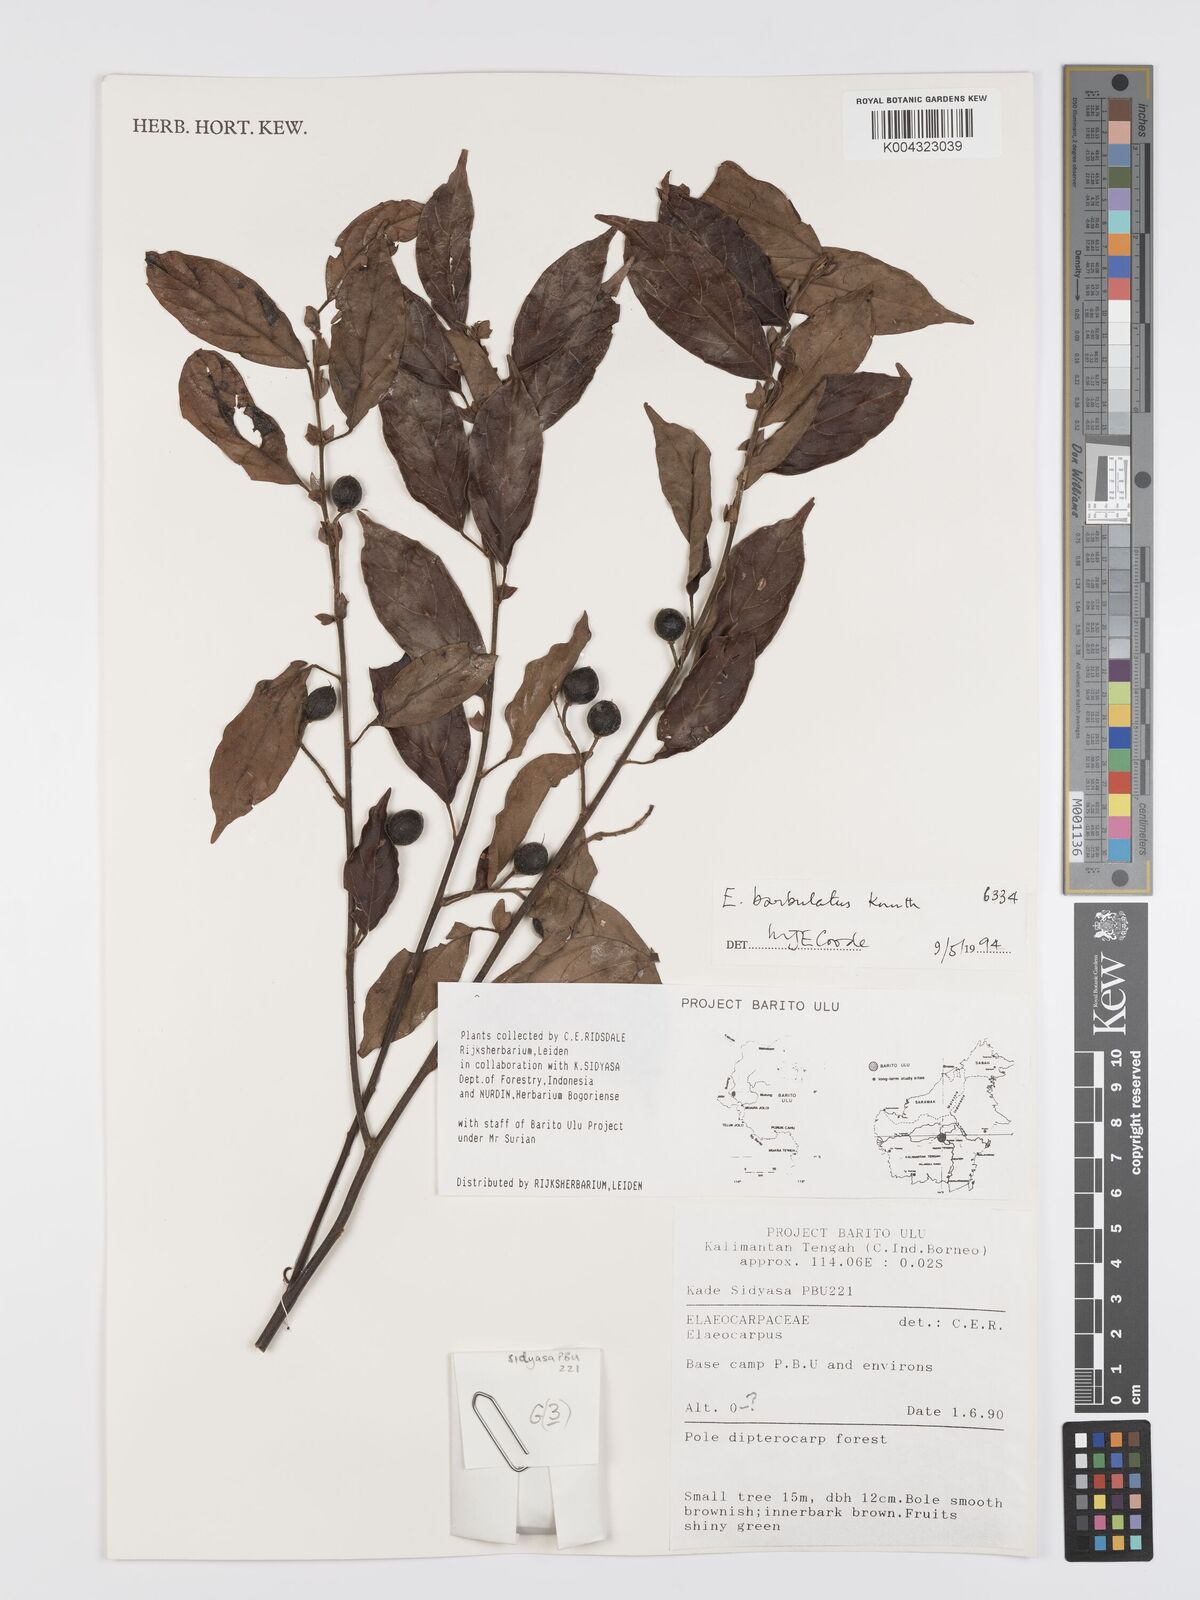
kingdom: Plantae
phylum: Tracheophyta
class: Magnoliopsida
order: Oxalidales
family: Elaeocarpaceae
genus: Elaeocarpus
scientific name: Elaeocarpus barbulatus
